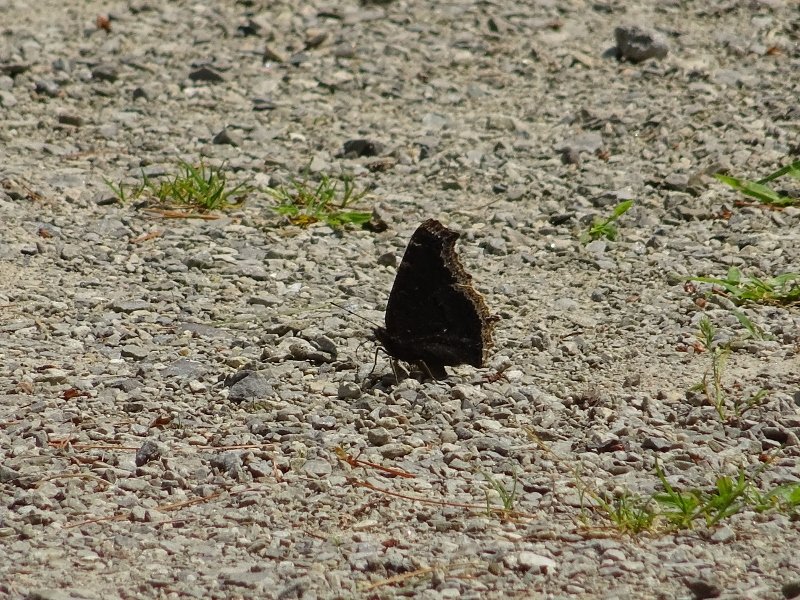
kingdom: Animalia
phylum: Arthropoda
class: Insecta
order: Lepidoptera
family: Nymphalidae
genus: Nymphalis
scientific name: Nymphalis antiopa
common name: Mourning Cloak
